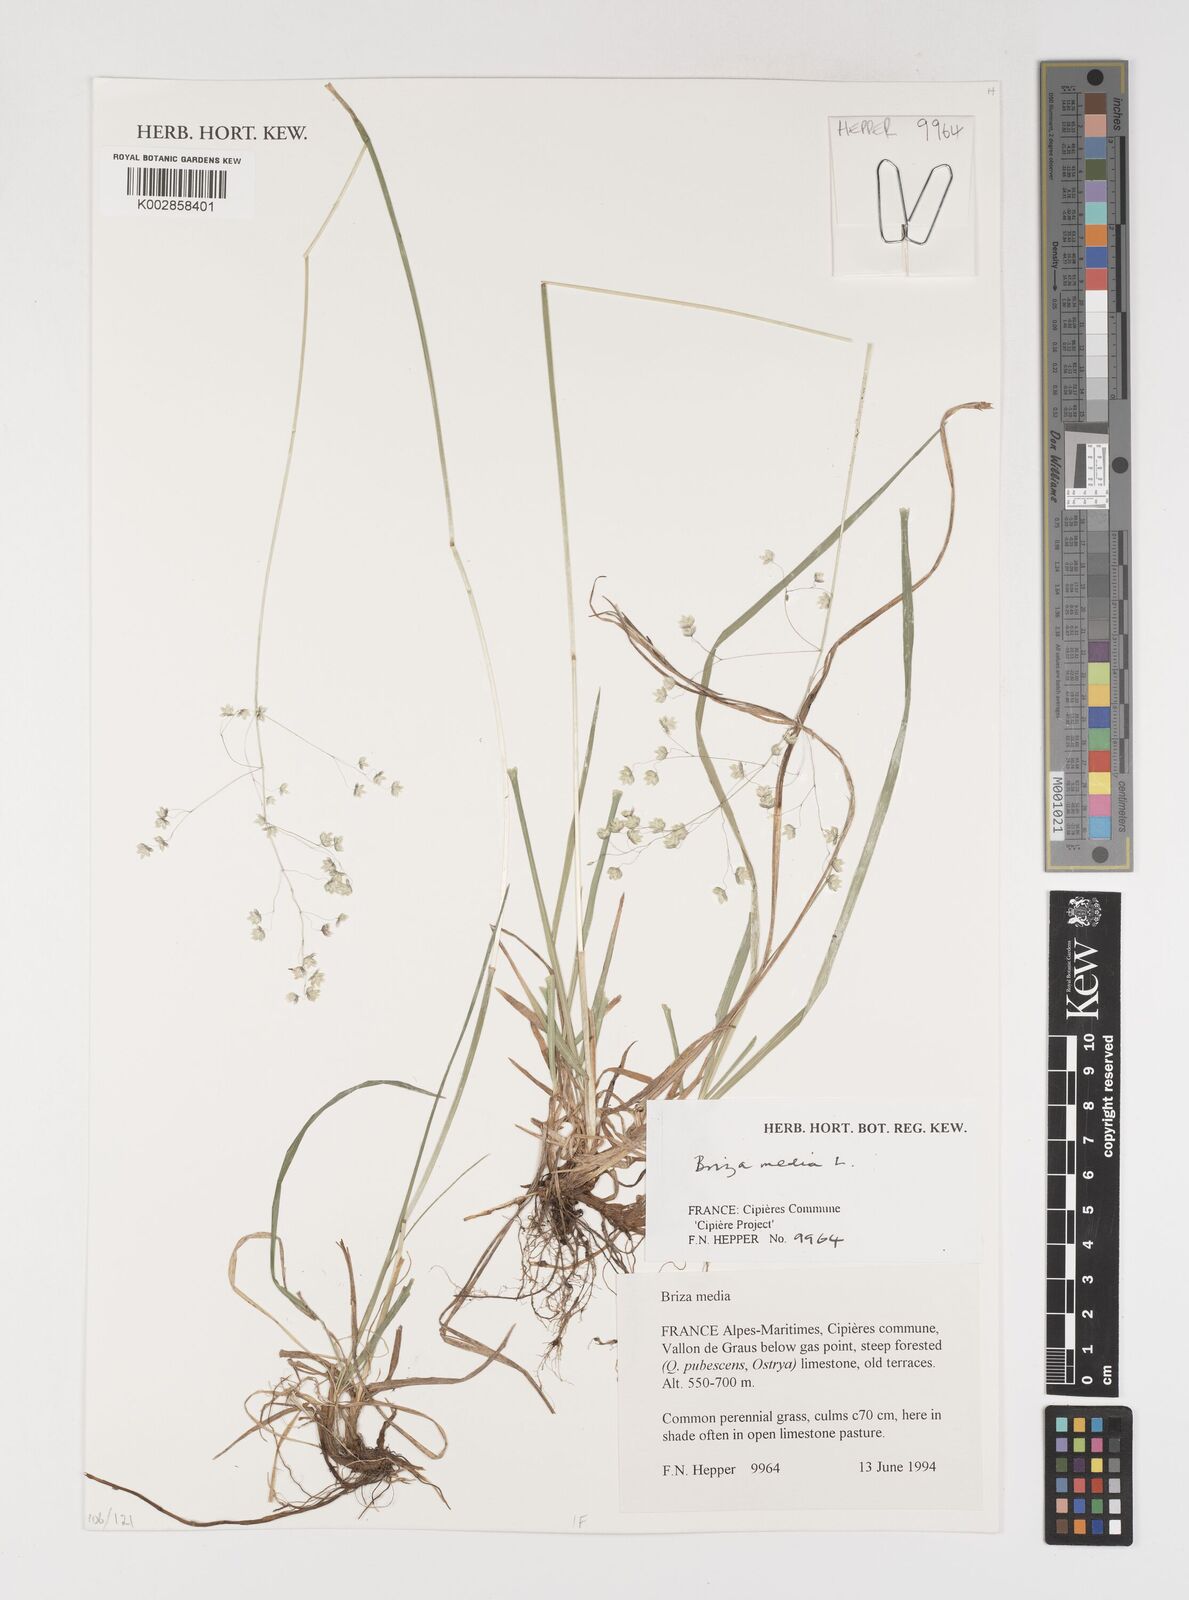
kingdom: Plantae
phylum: Tracheophyta
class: Liliopsida
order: Poales
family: Poaceae
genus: Briza
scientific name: Briza media
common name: Quaking grass
